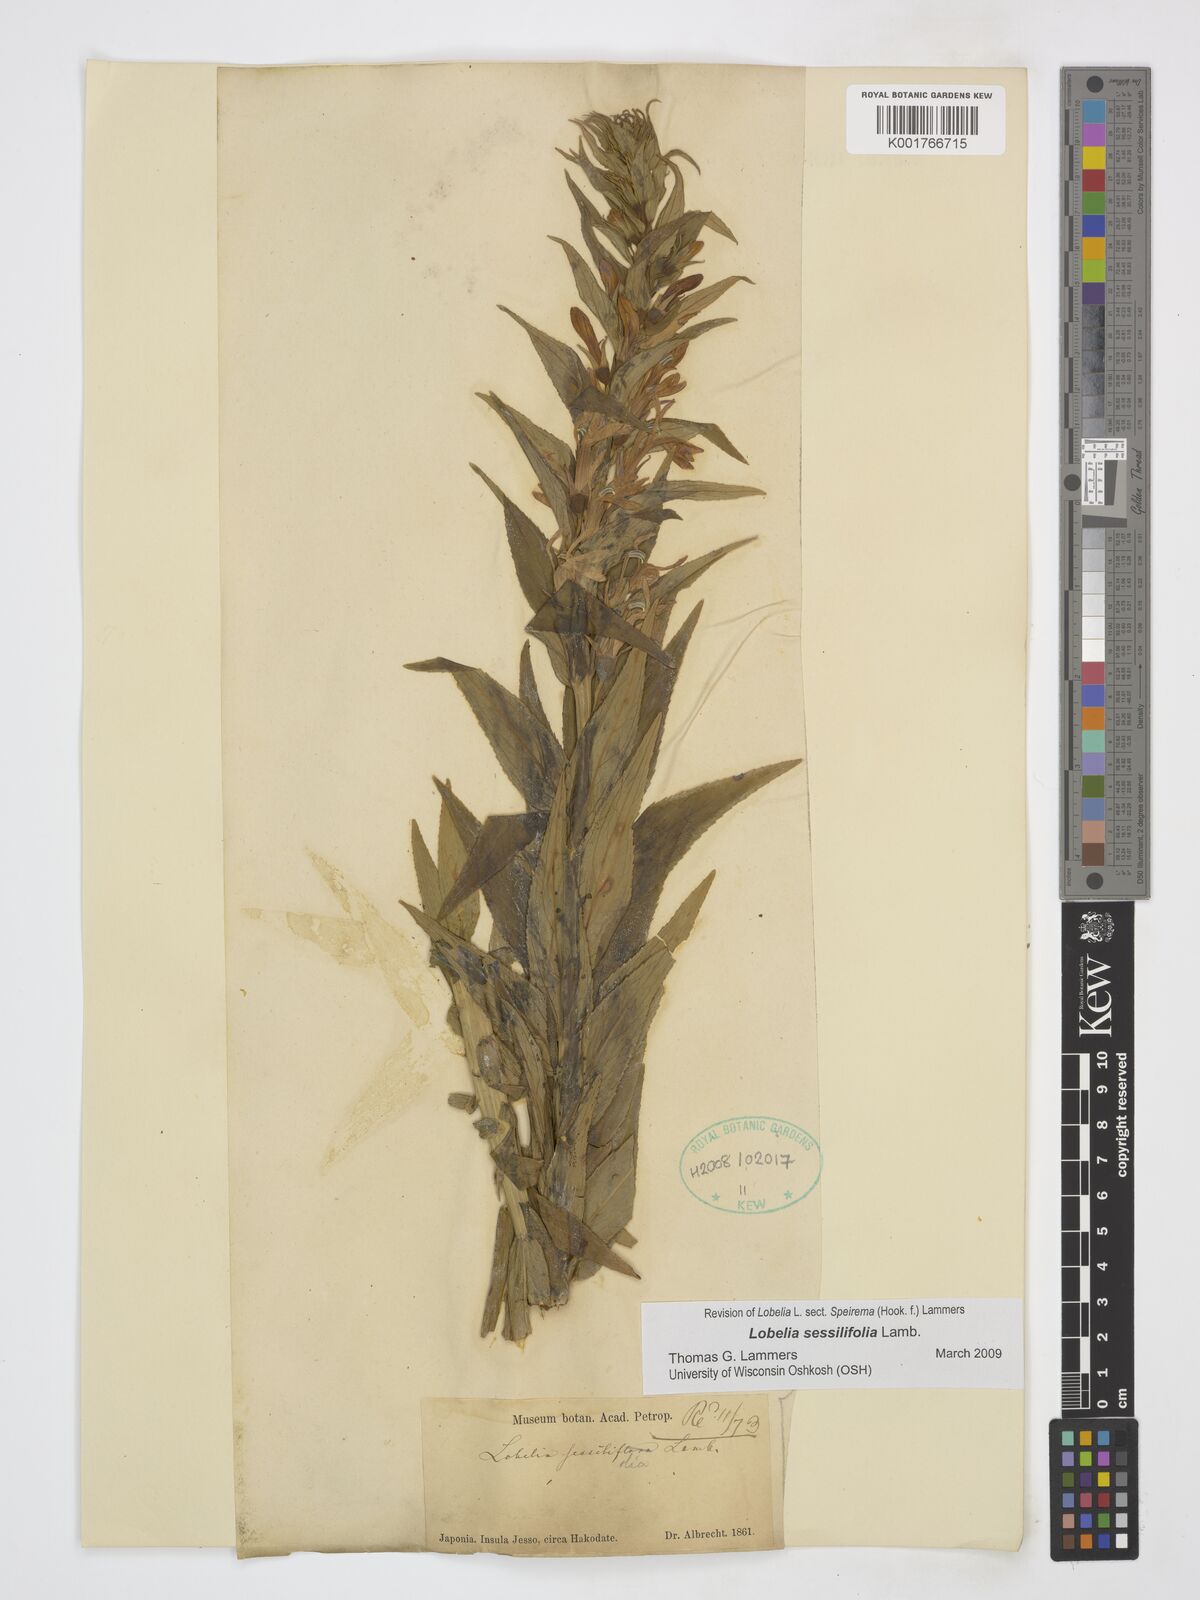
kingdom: Plantae
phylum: Tracheophyta
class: Magnoliopsida
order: Asterales
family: Campanulaceae
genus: Lobelia
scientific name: Lobelia sessilifolia
